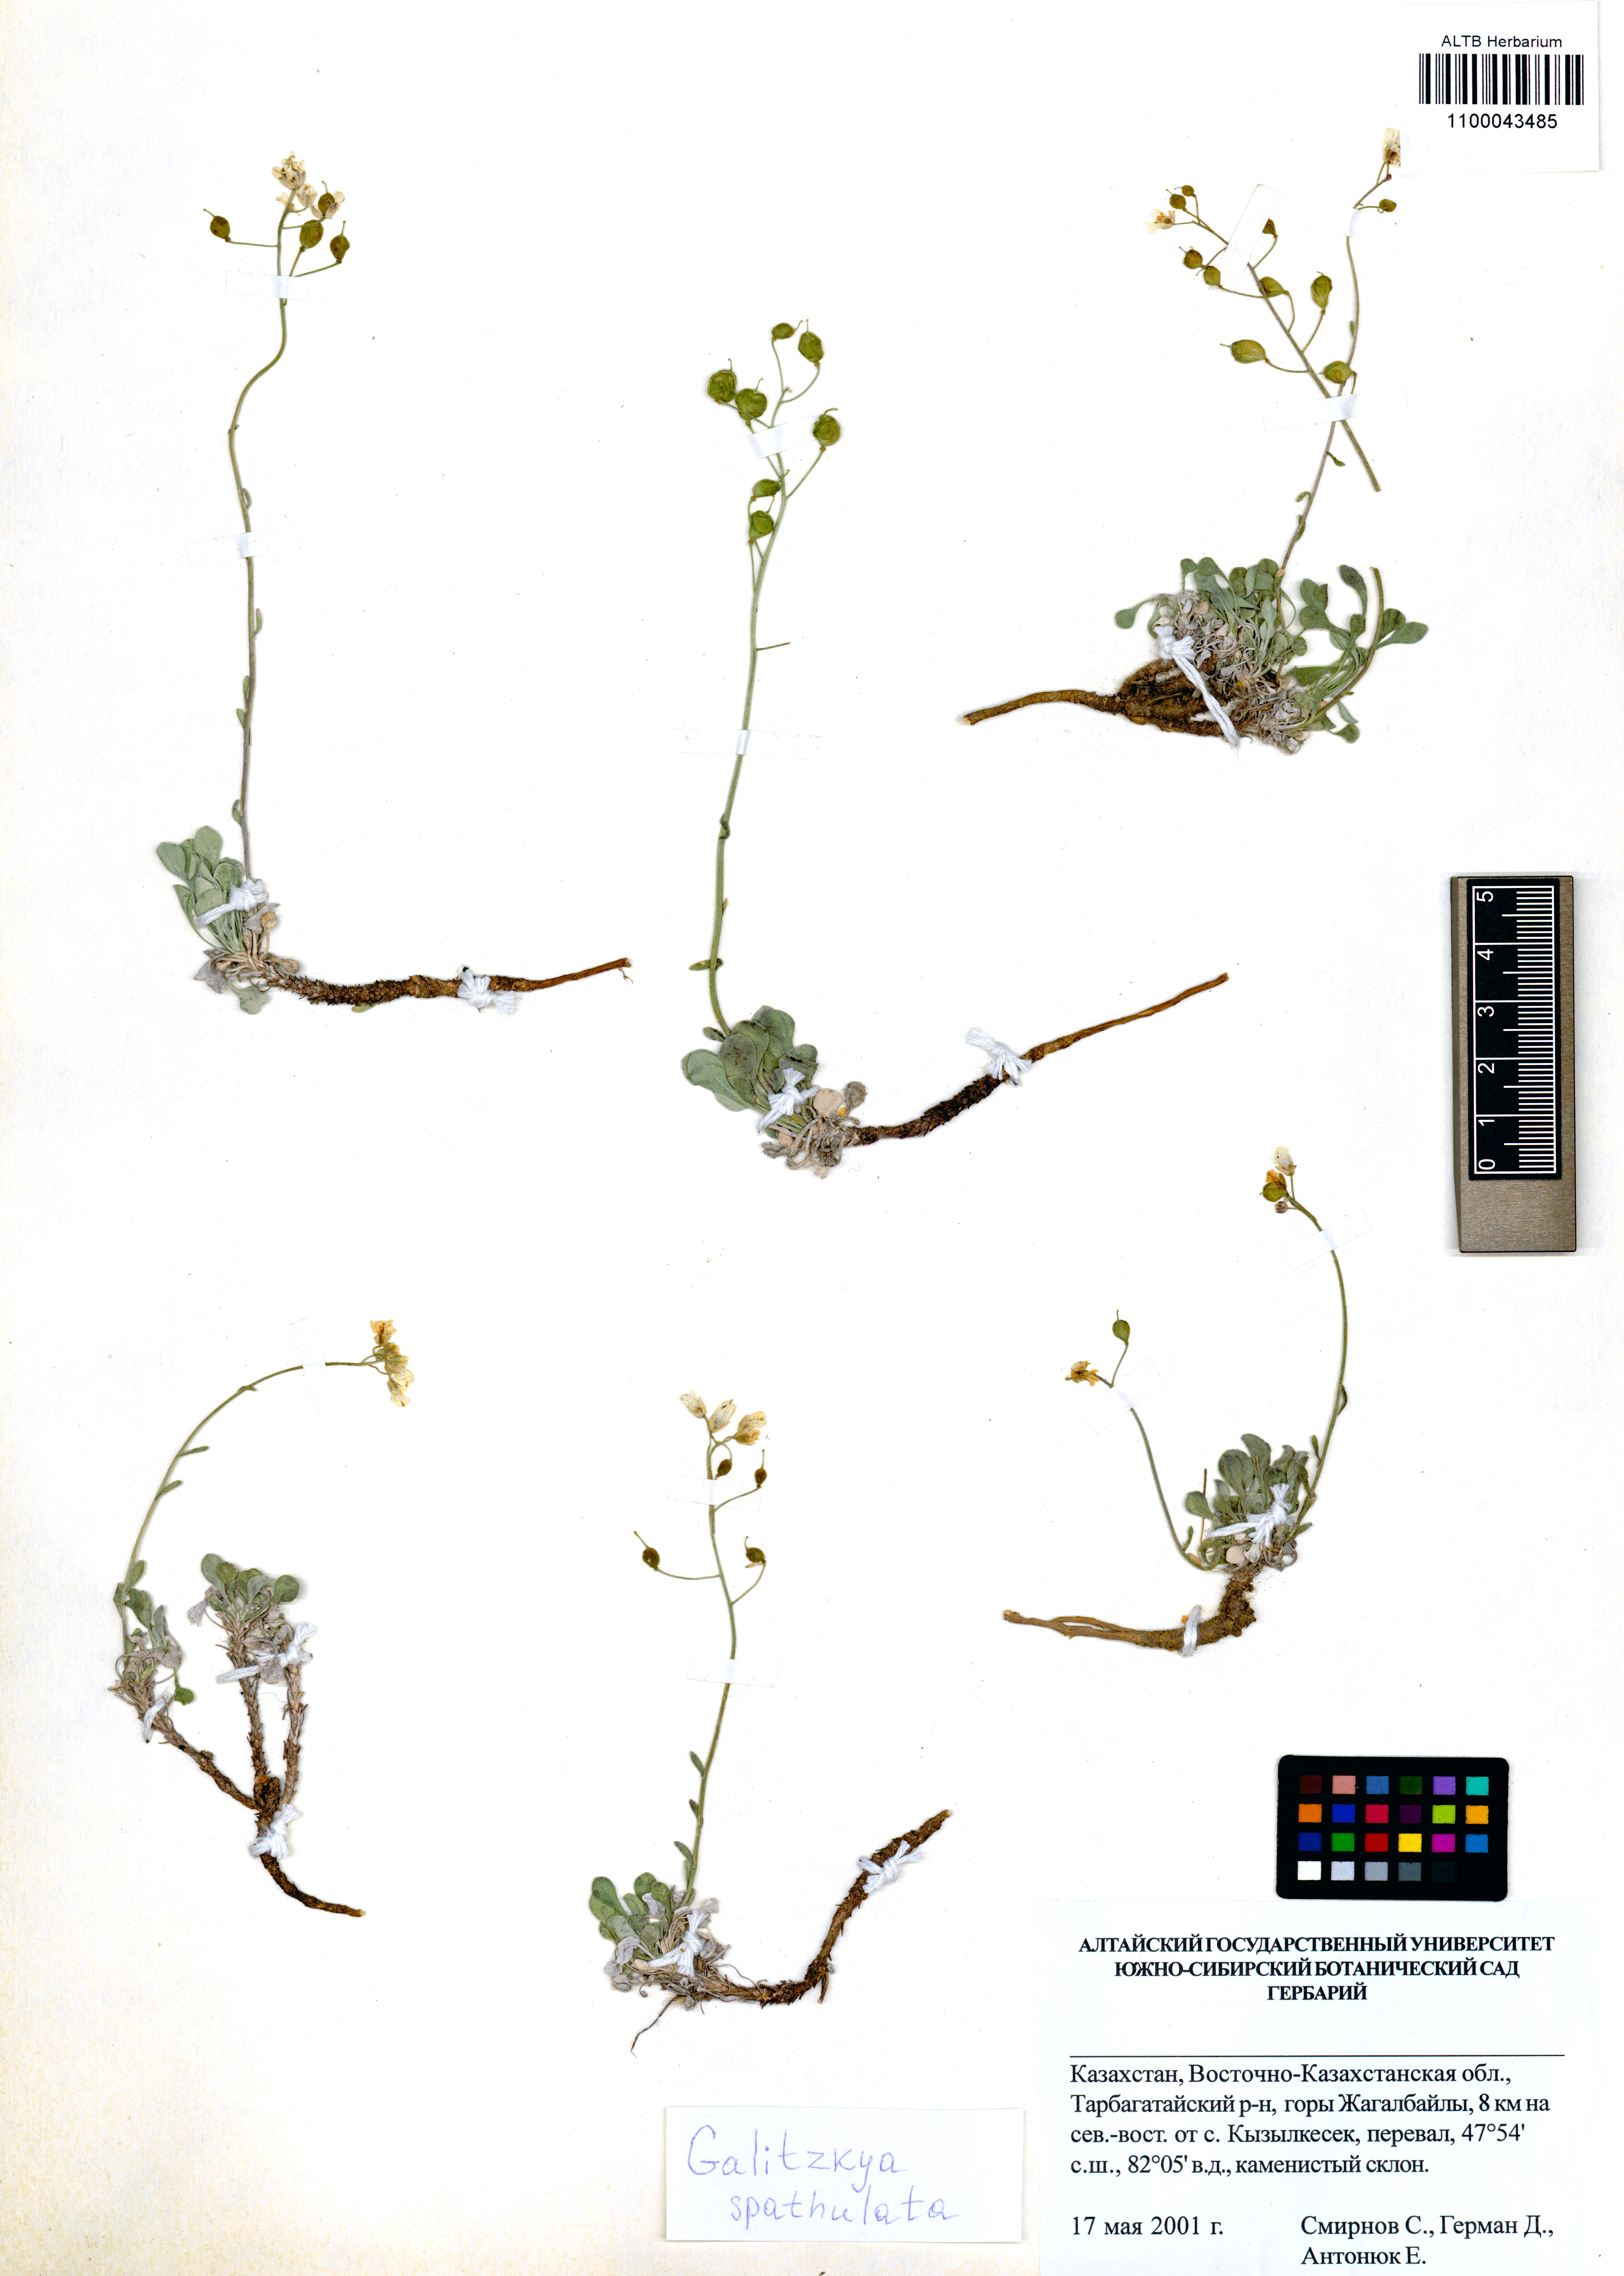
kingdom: Plantae
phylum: Tracheophyta
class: Magnoliopsida
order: Brassicales
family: Brassicaceae
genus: Galitzkya
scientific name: Galitzkya spathulata
